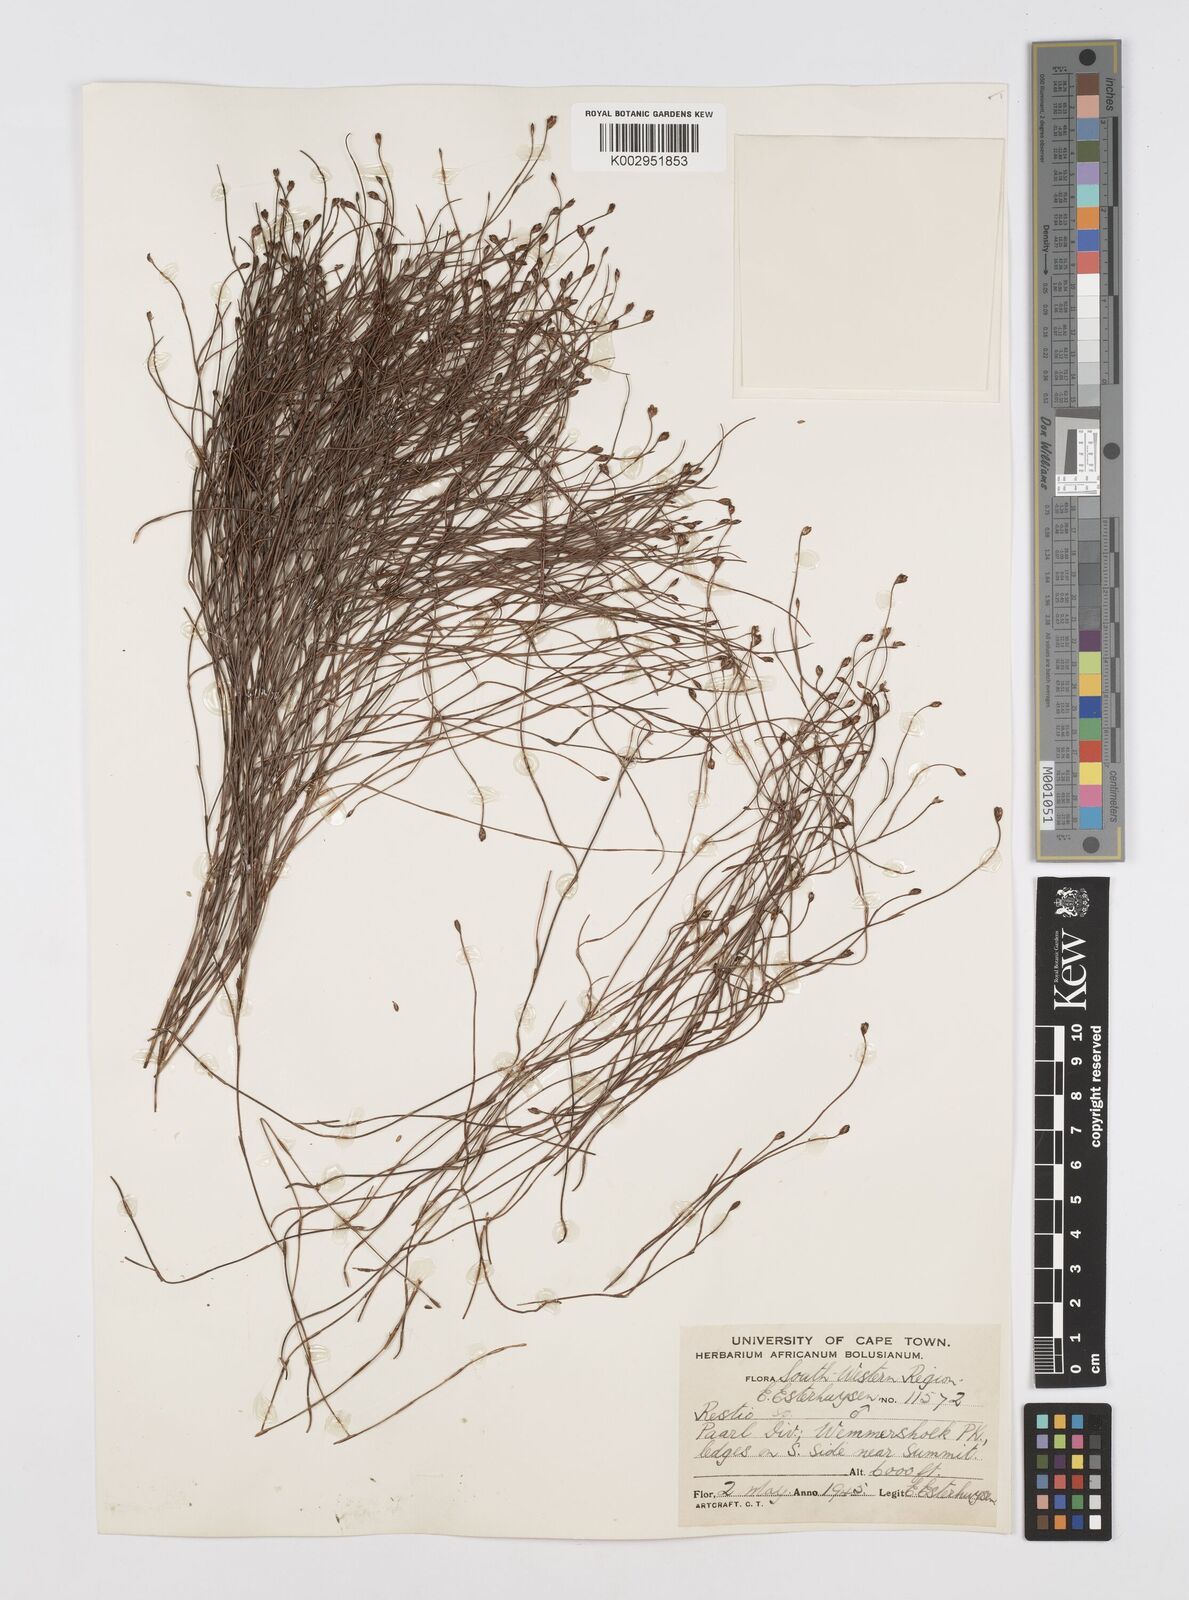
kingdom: Plantae
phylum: Tracheophyta
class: Liliopsida
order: Poales
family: Restionaceae
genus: Restio
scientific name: Restio
